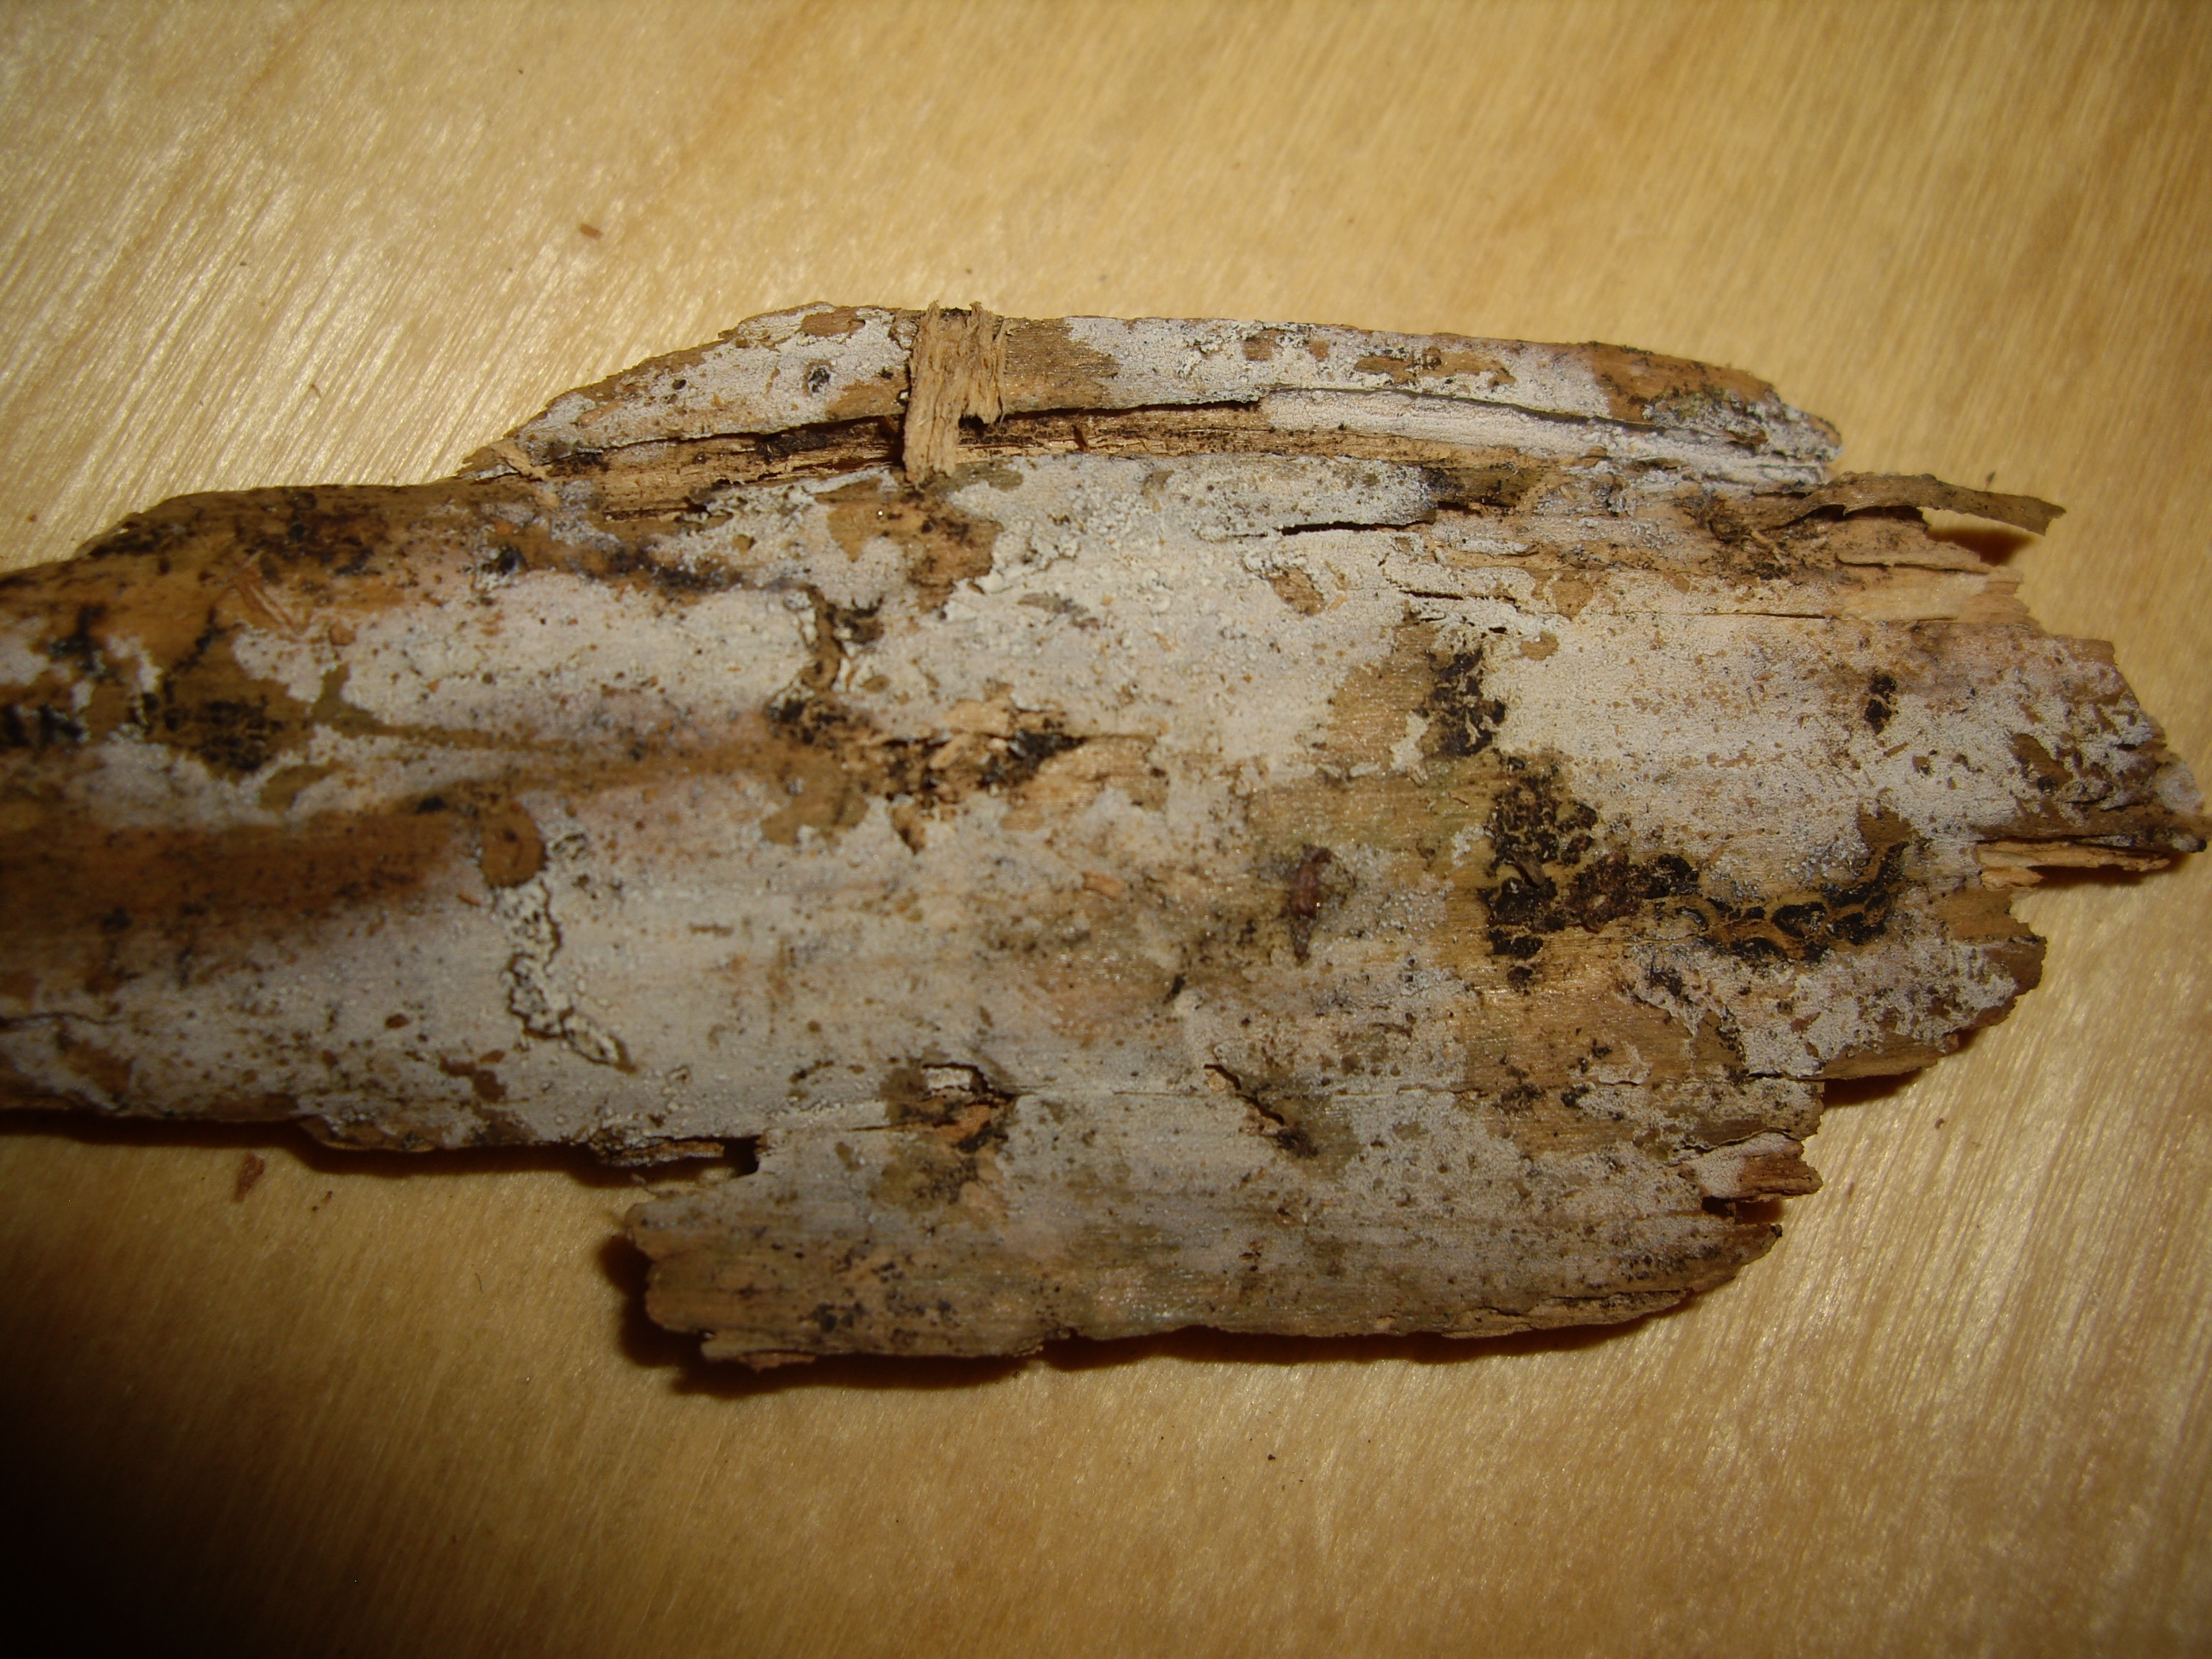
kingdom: Fungi
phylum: Basidiomycota
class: Agaricomycetes
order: Trechisporales
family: Sistotremataceae
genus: Trechispora
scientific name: Trechispora laevis
